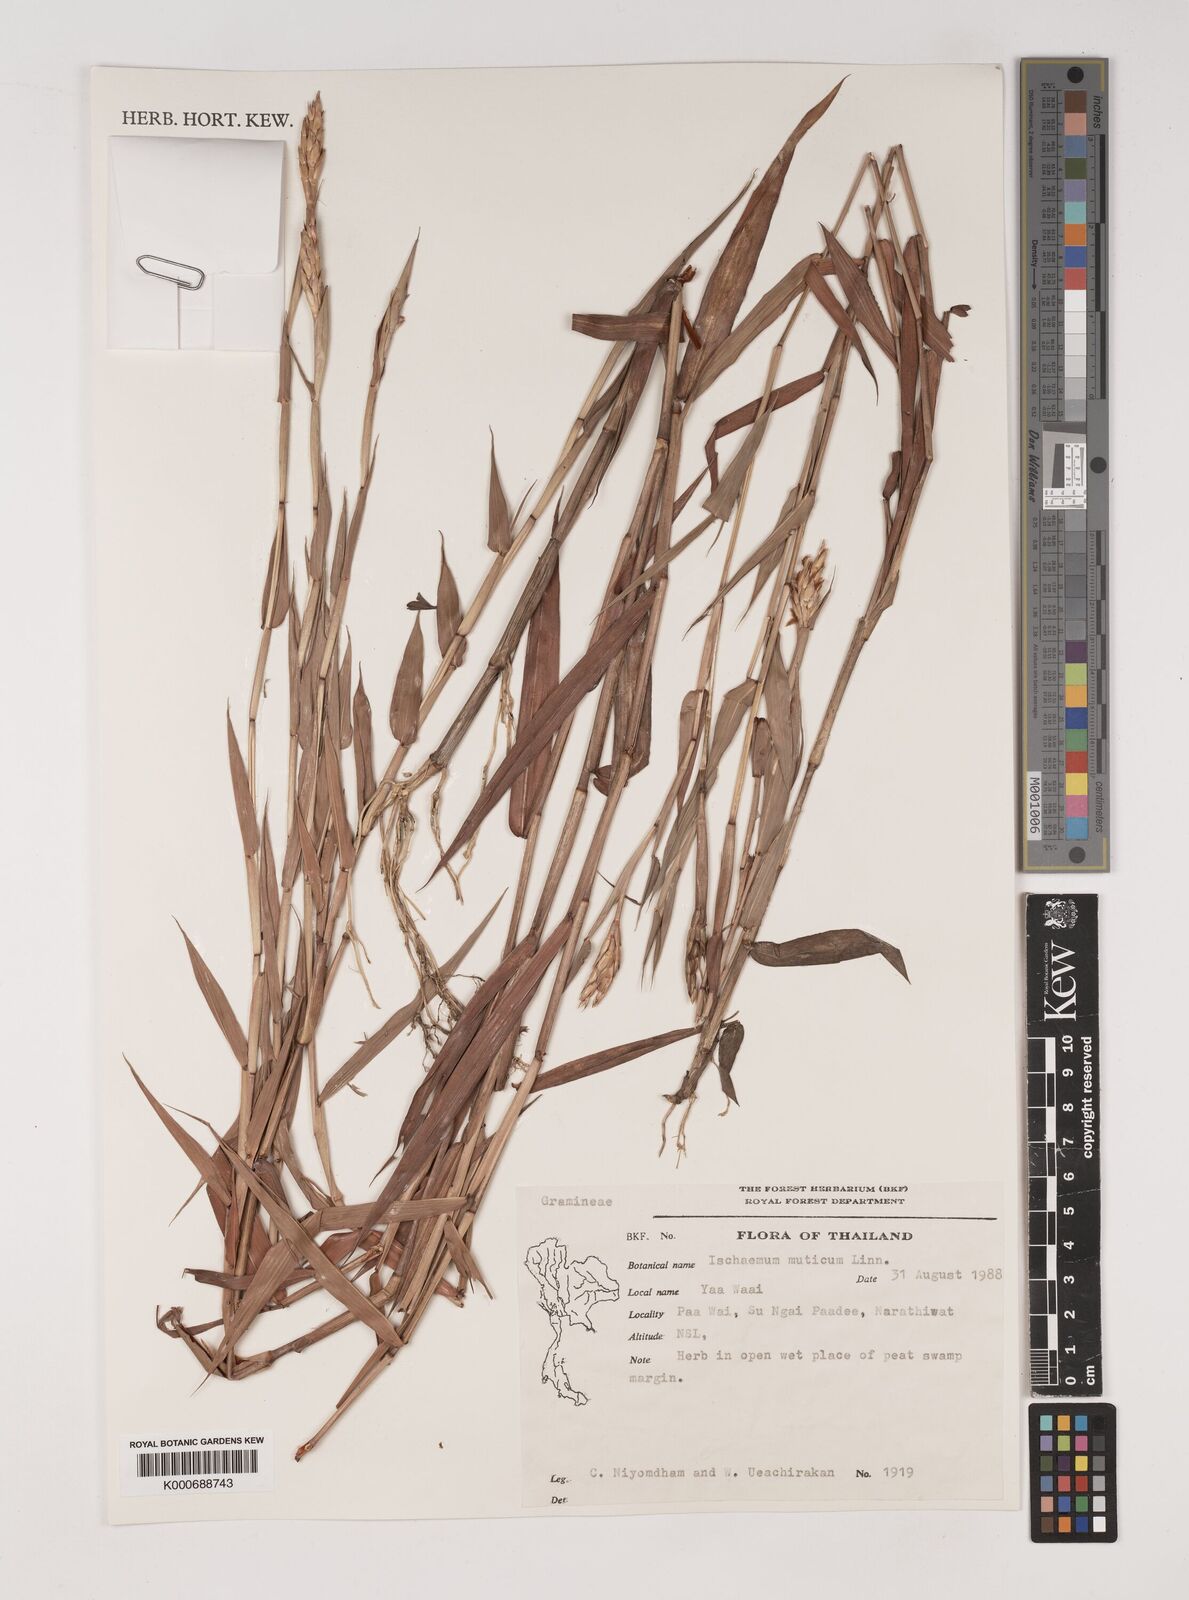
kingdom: Plantae
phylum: Tracheophyta
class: Liliopsida
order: Poales
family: Poaceae
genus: Ischaemum
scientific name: Ischaemum muticum
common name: Drought grass
